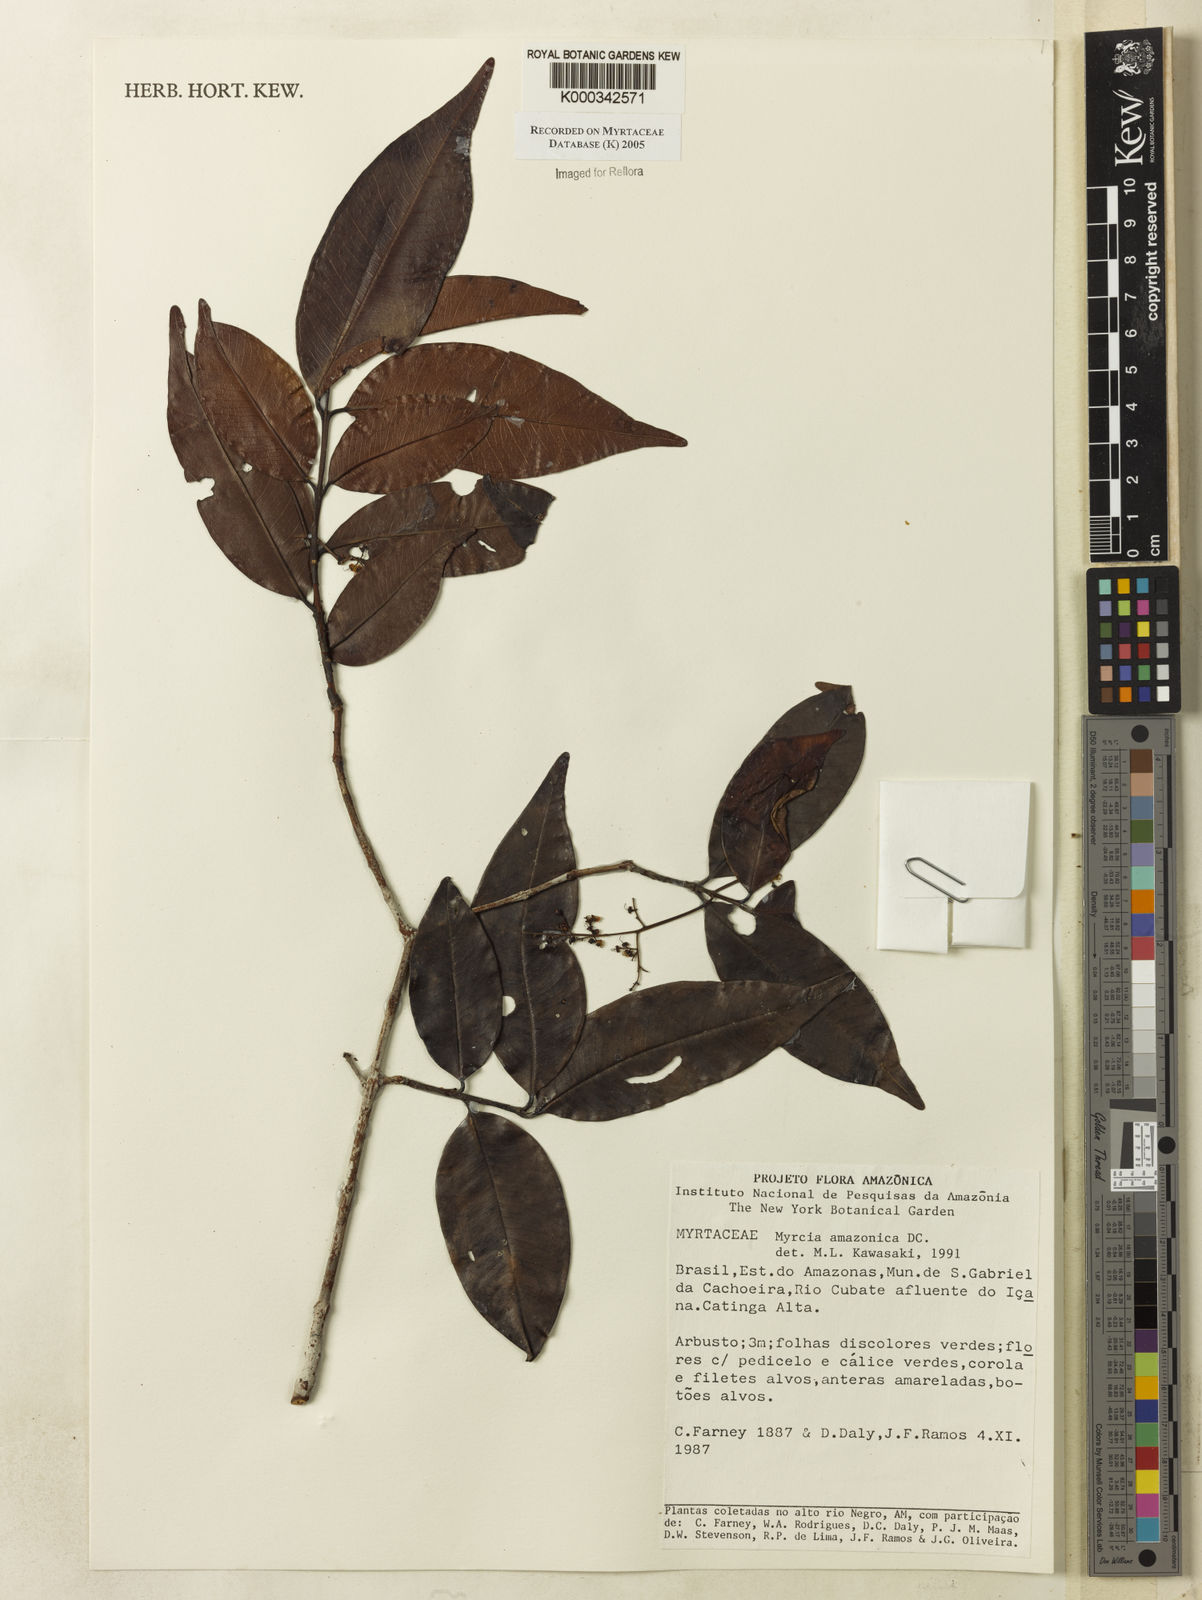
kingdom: Plantae
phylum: Tracheophyta
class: Magnoliopsida
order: Myrtales
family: Myrtaceae
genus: Myrcia
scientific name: Myrcia amazonica
